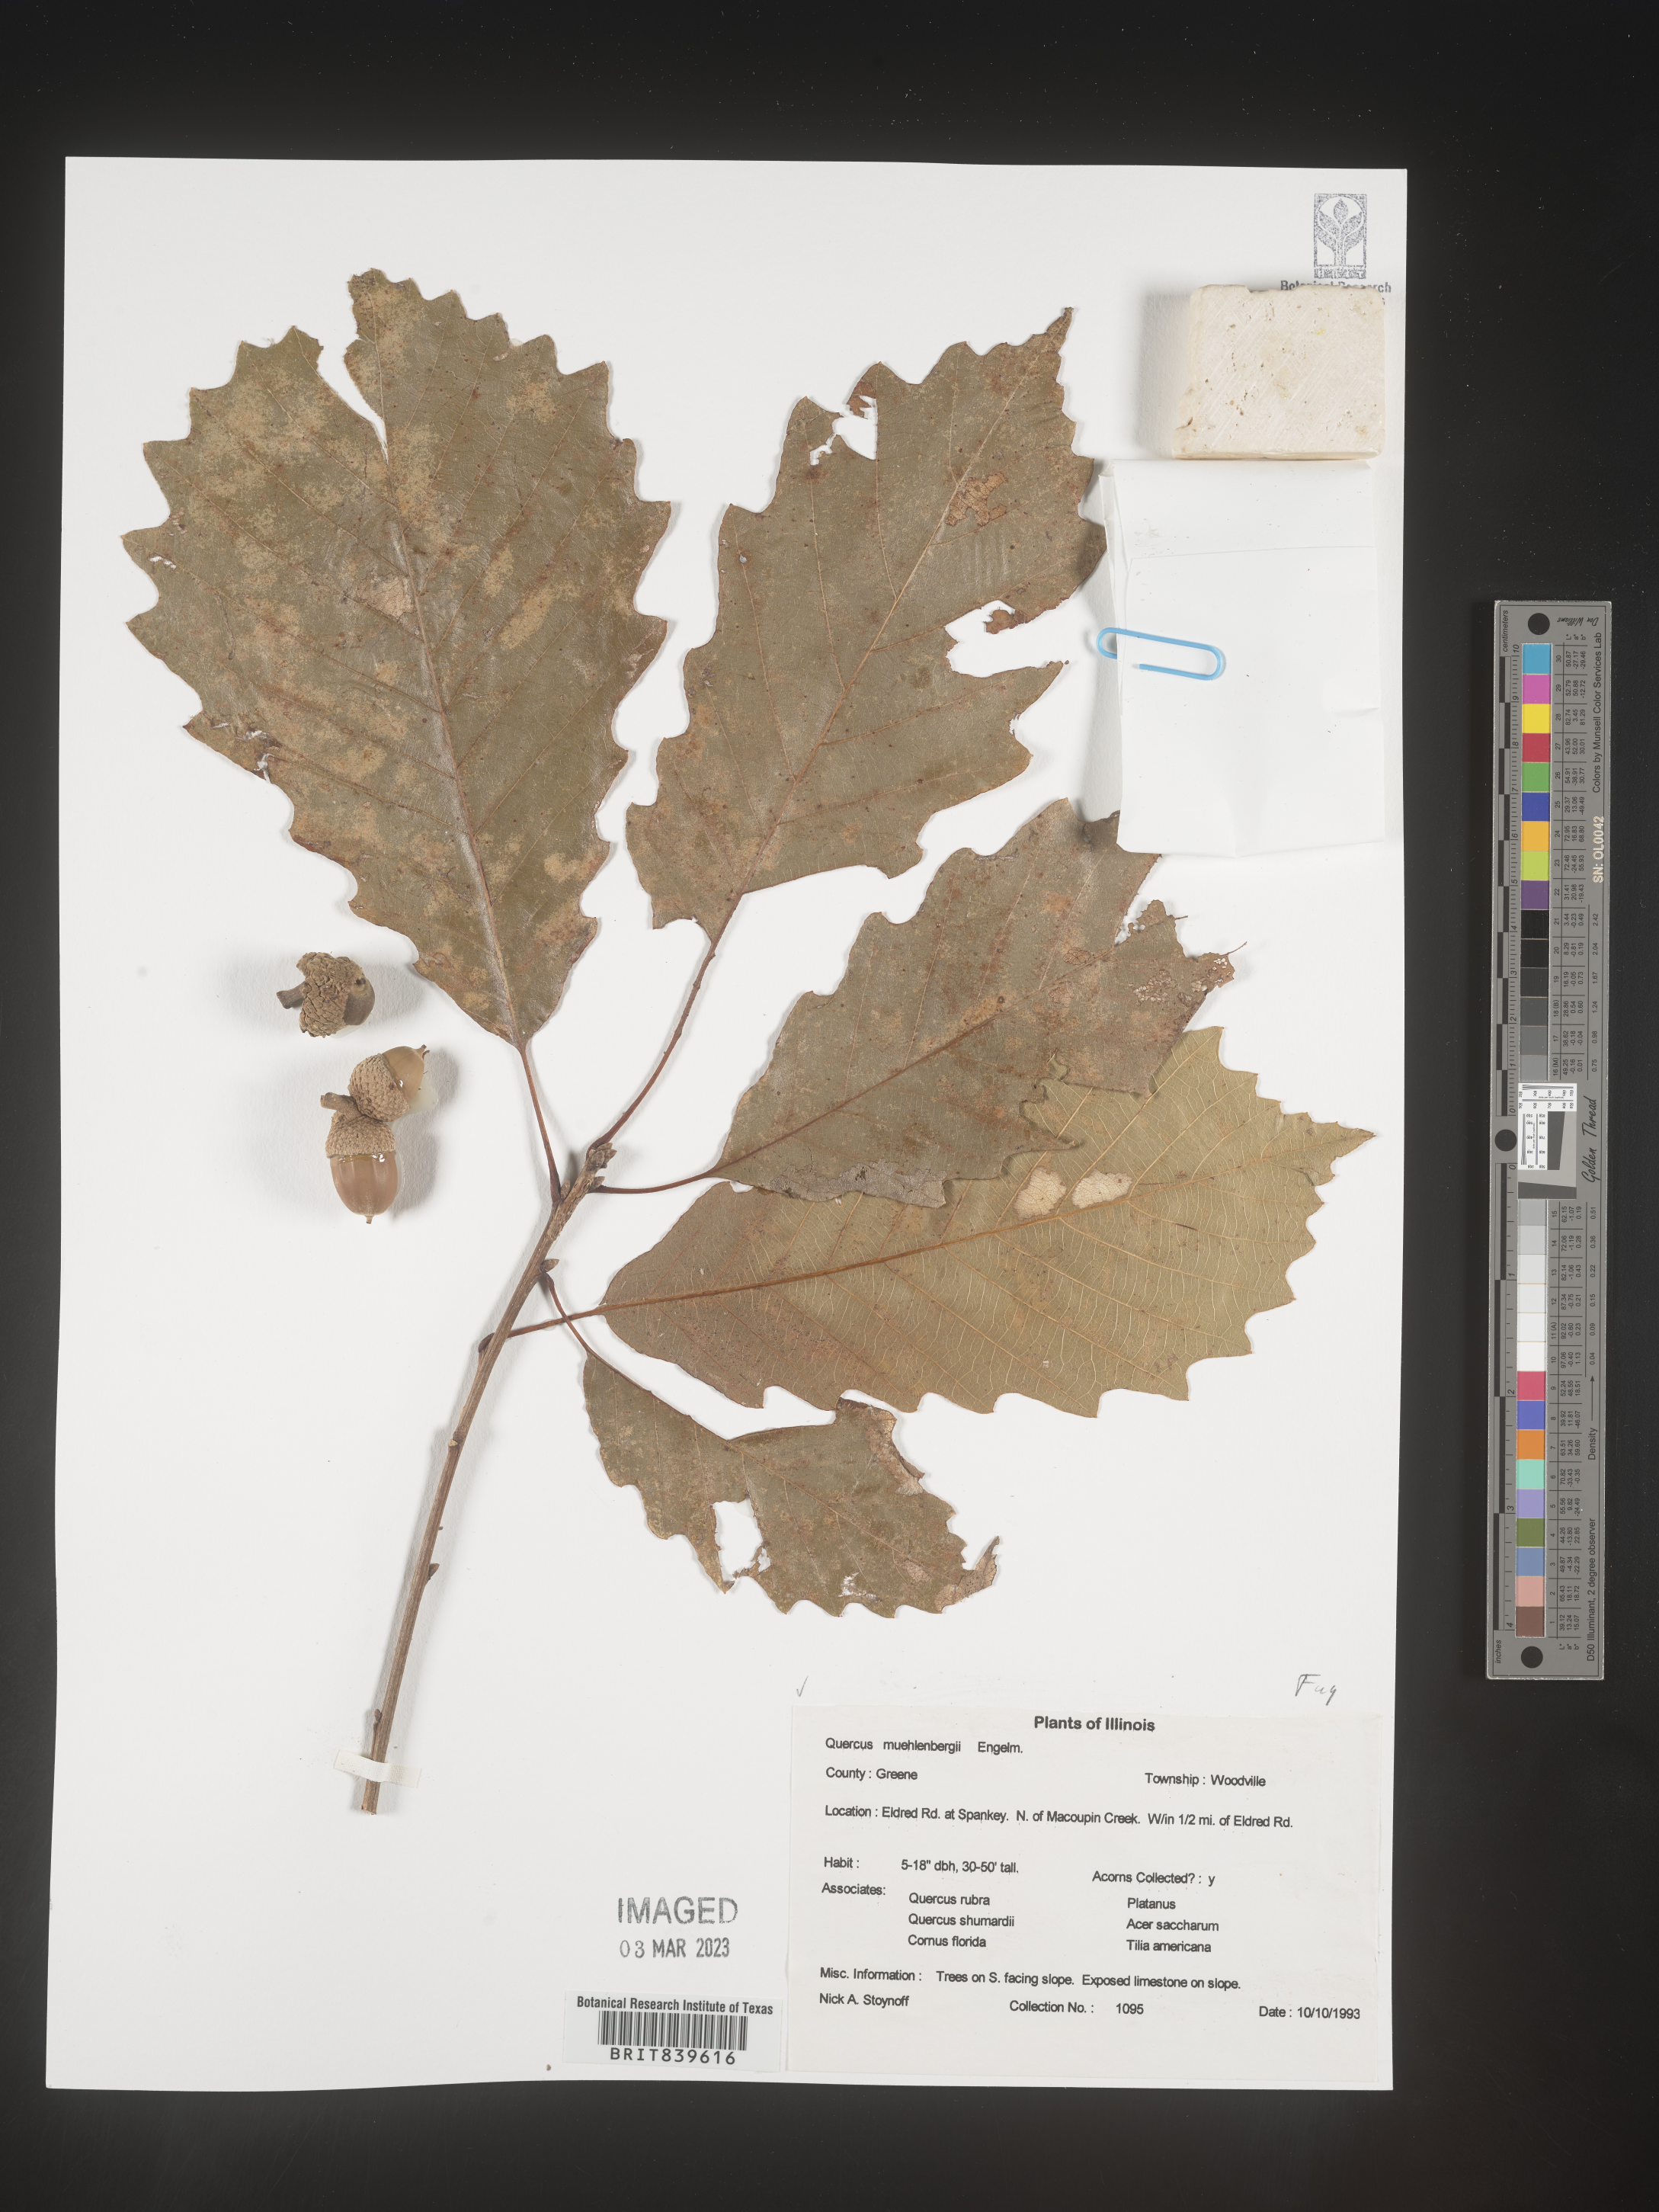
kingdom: Plantae
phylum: Tracheophyta
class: Magnoliopsida
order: Fagales
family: Fagaceae
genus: Quercus
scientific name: Quercus muehlenbergii
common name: Chinkapin oak
